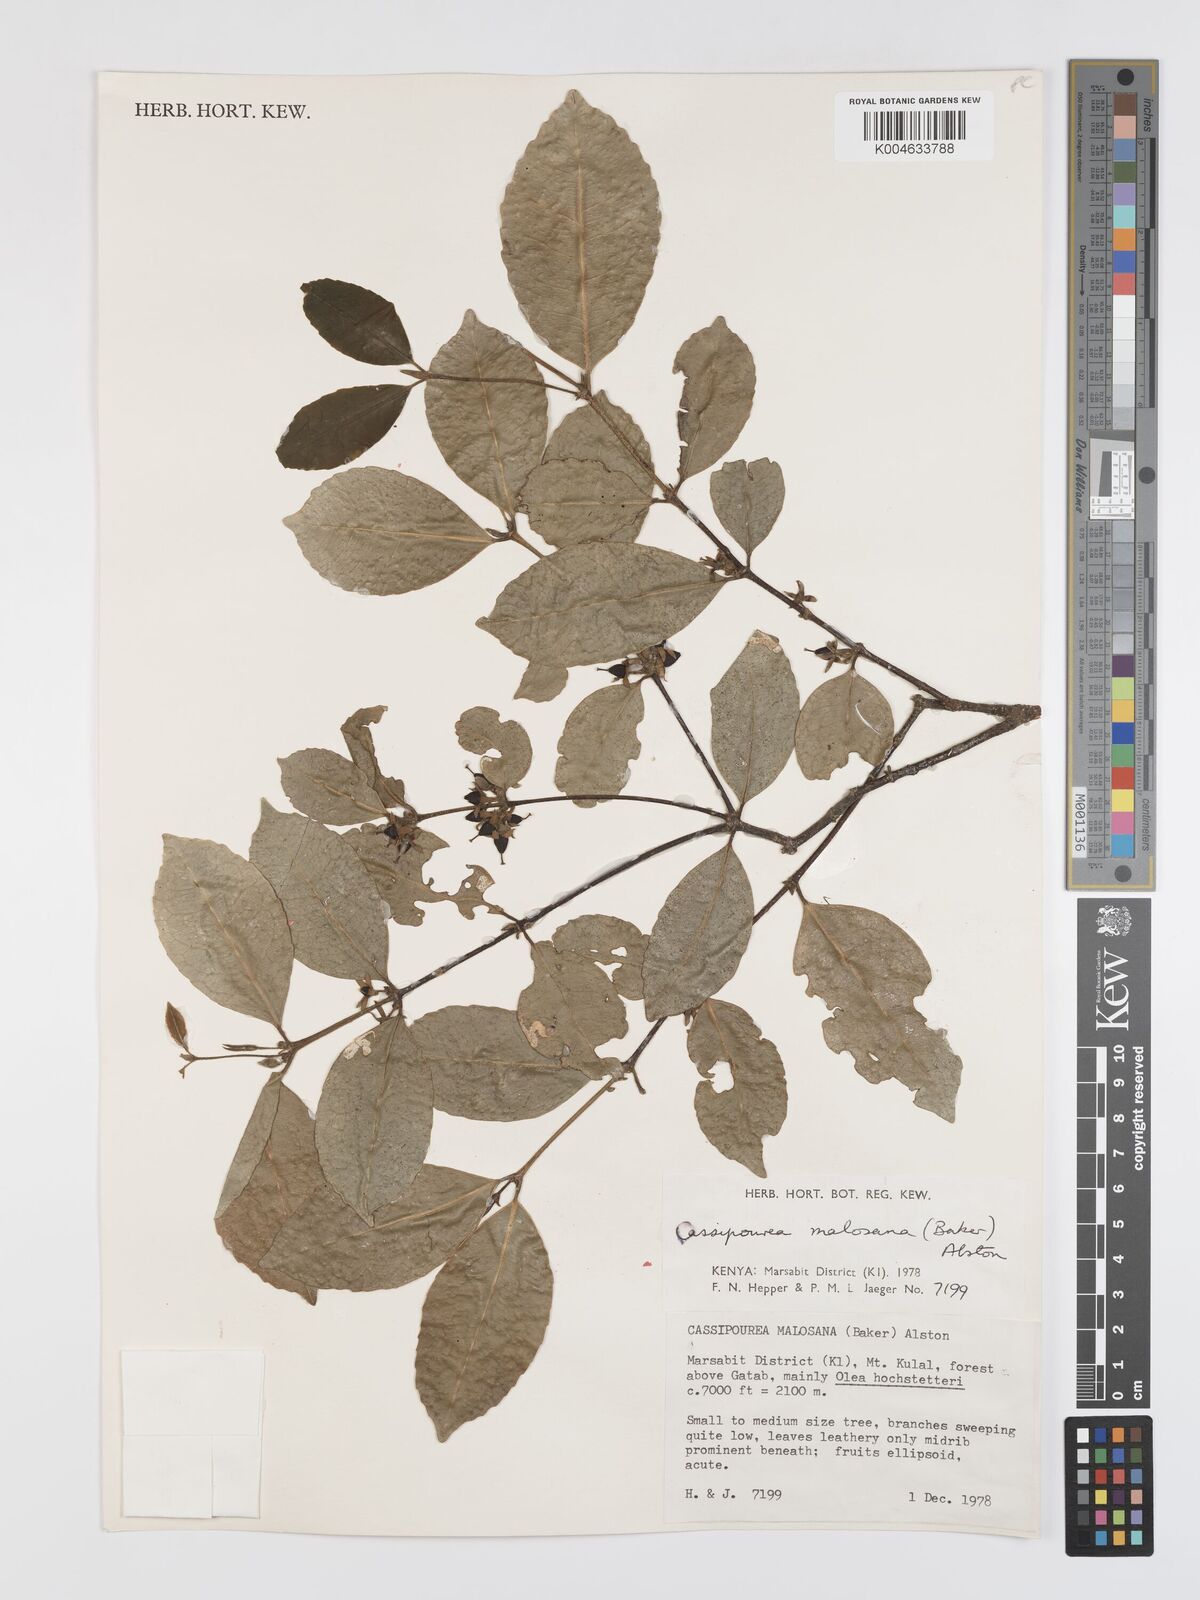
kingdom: Plantae
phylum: Tracheophyta
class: Magnoliopsida
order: Malpighiales
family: Rhizophoraceae
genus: Cassipourea
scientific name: Cassipourea malosana
